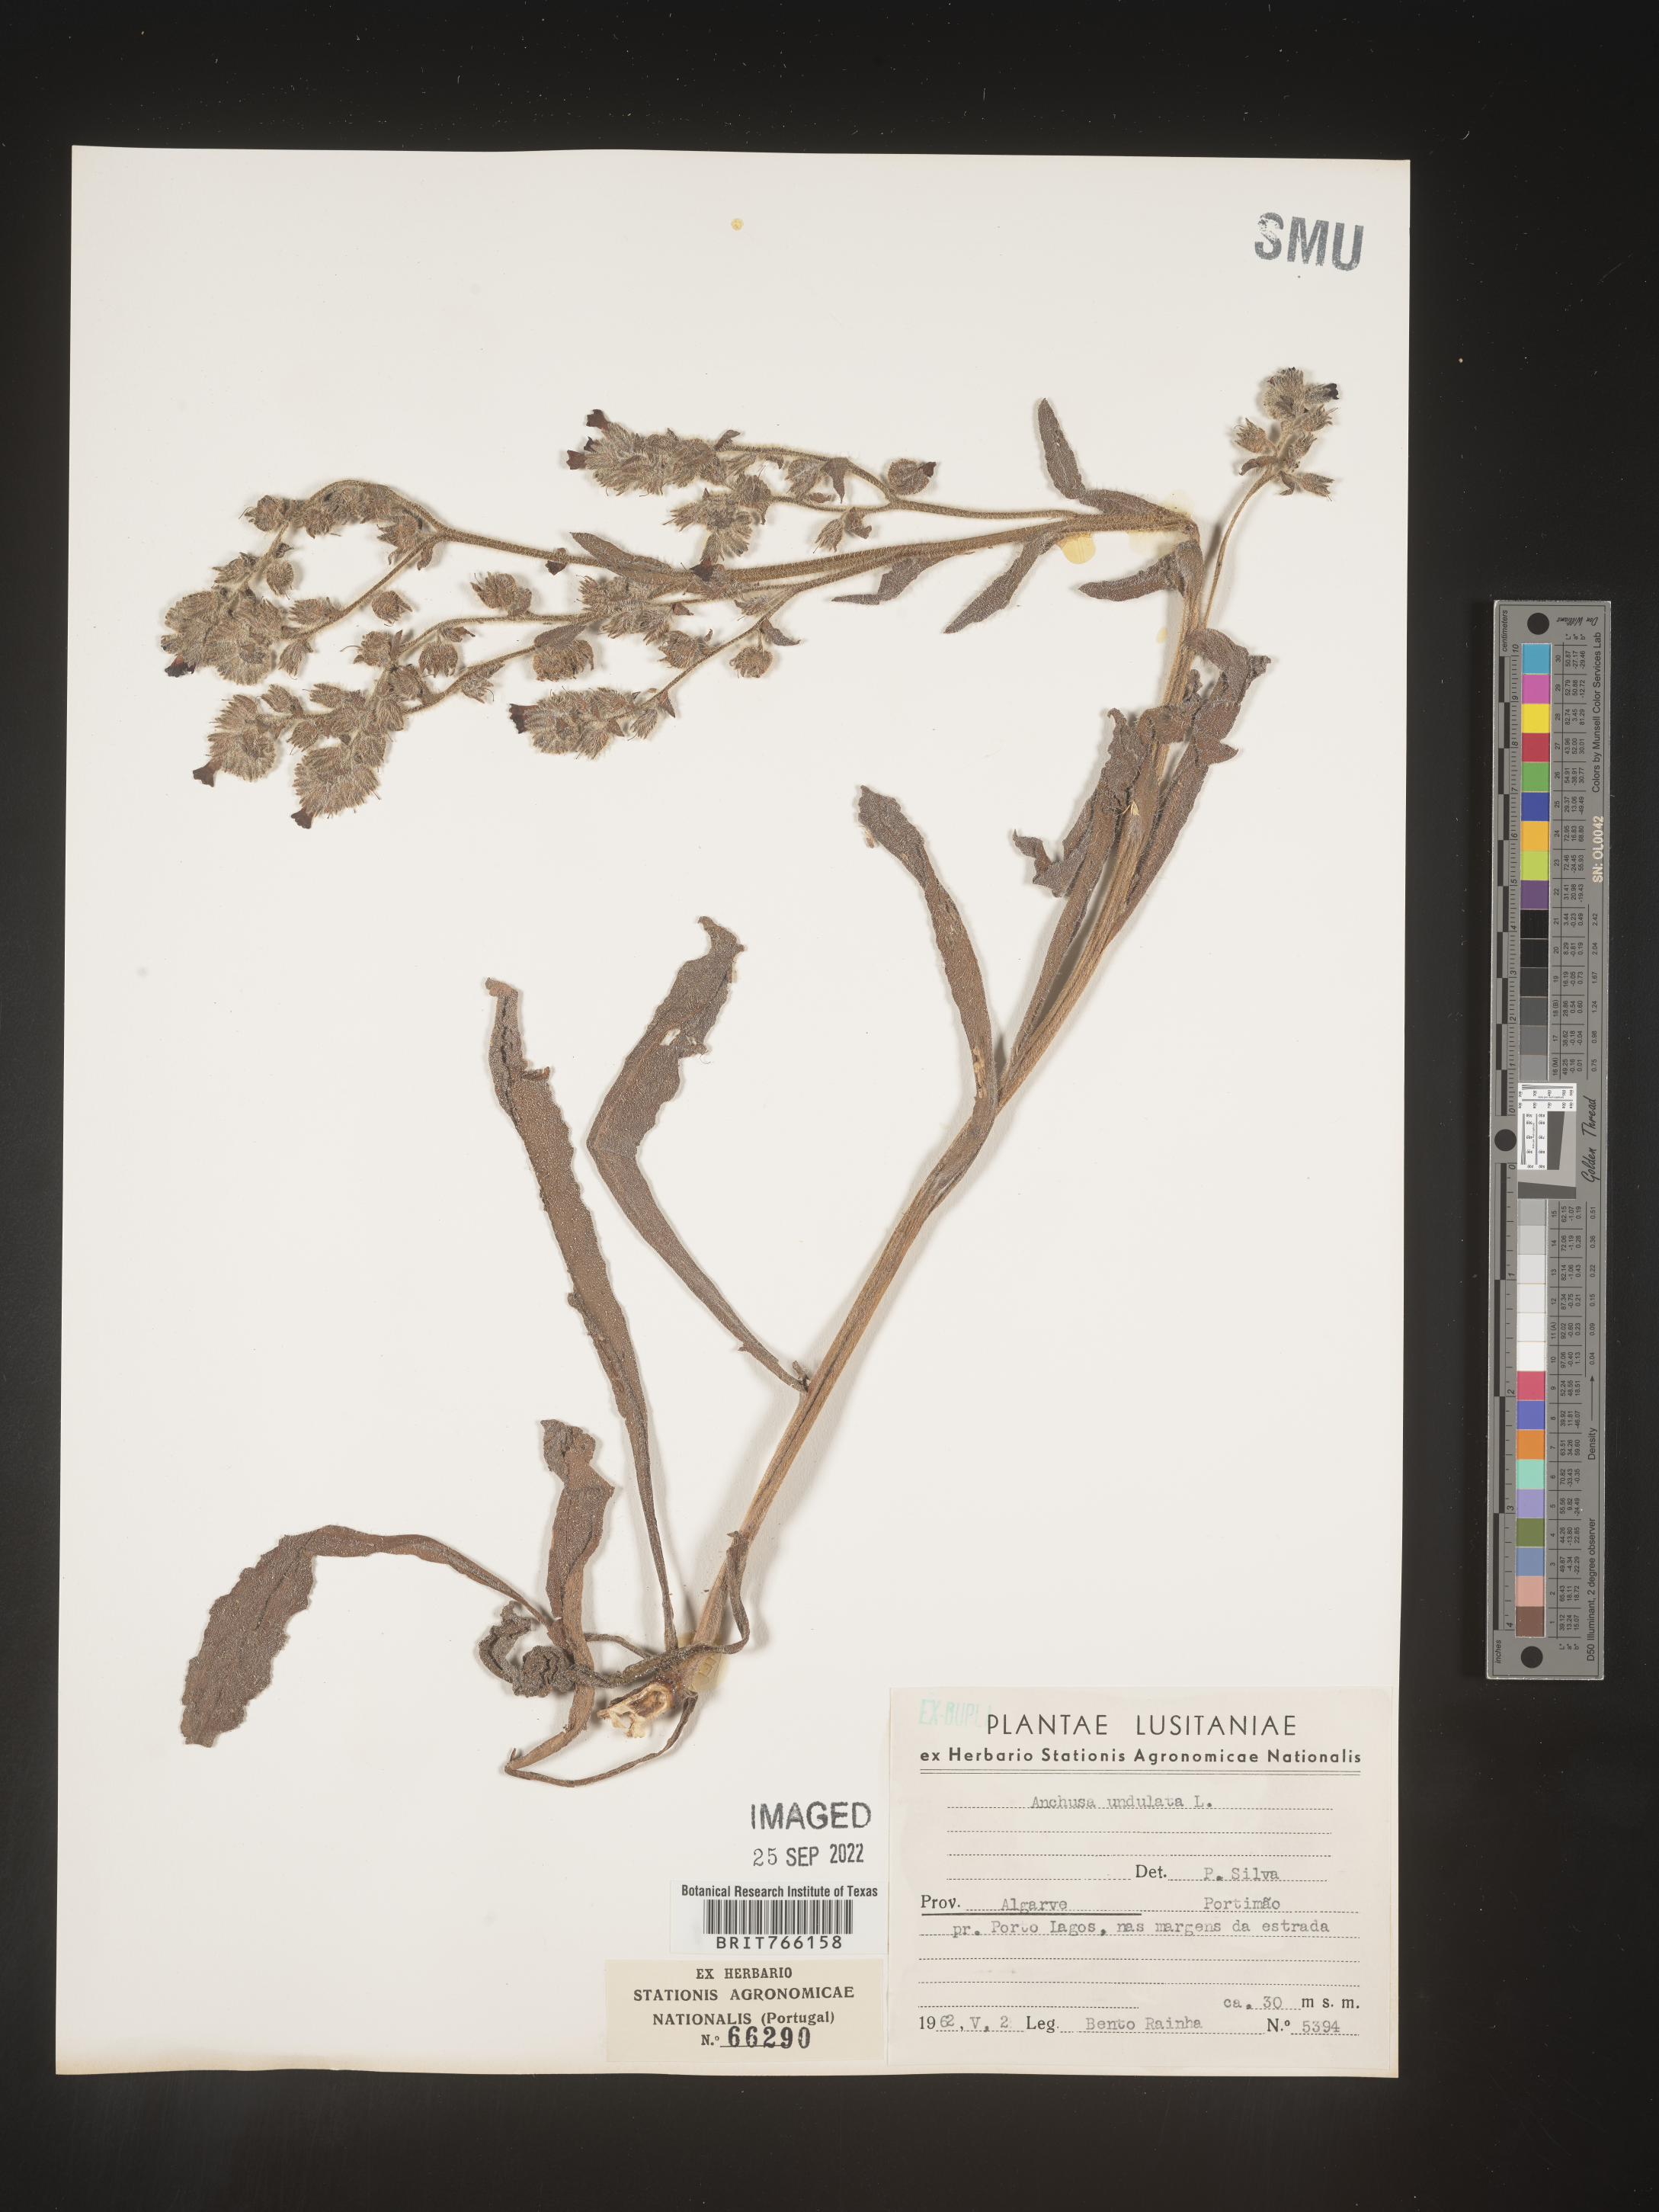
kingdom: Plantae
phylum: Tracheophyta
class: Magnoliopsida
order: Boraginales
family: Boraginaceae
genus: Anchusa
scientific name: Anchusa
